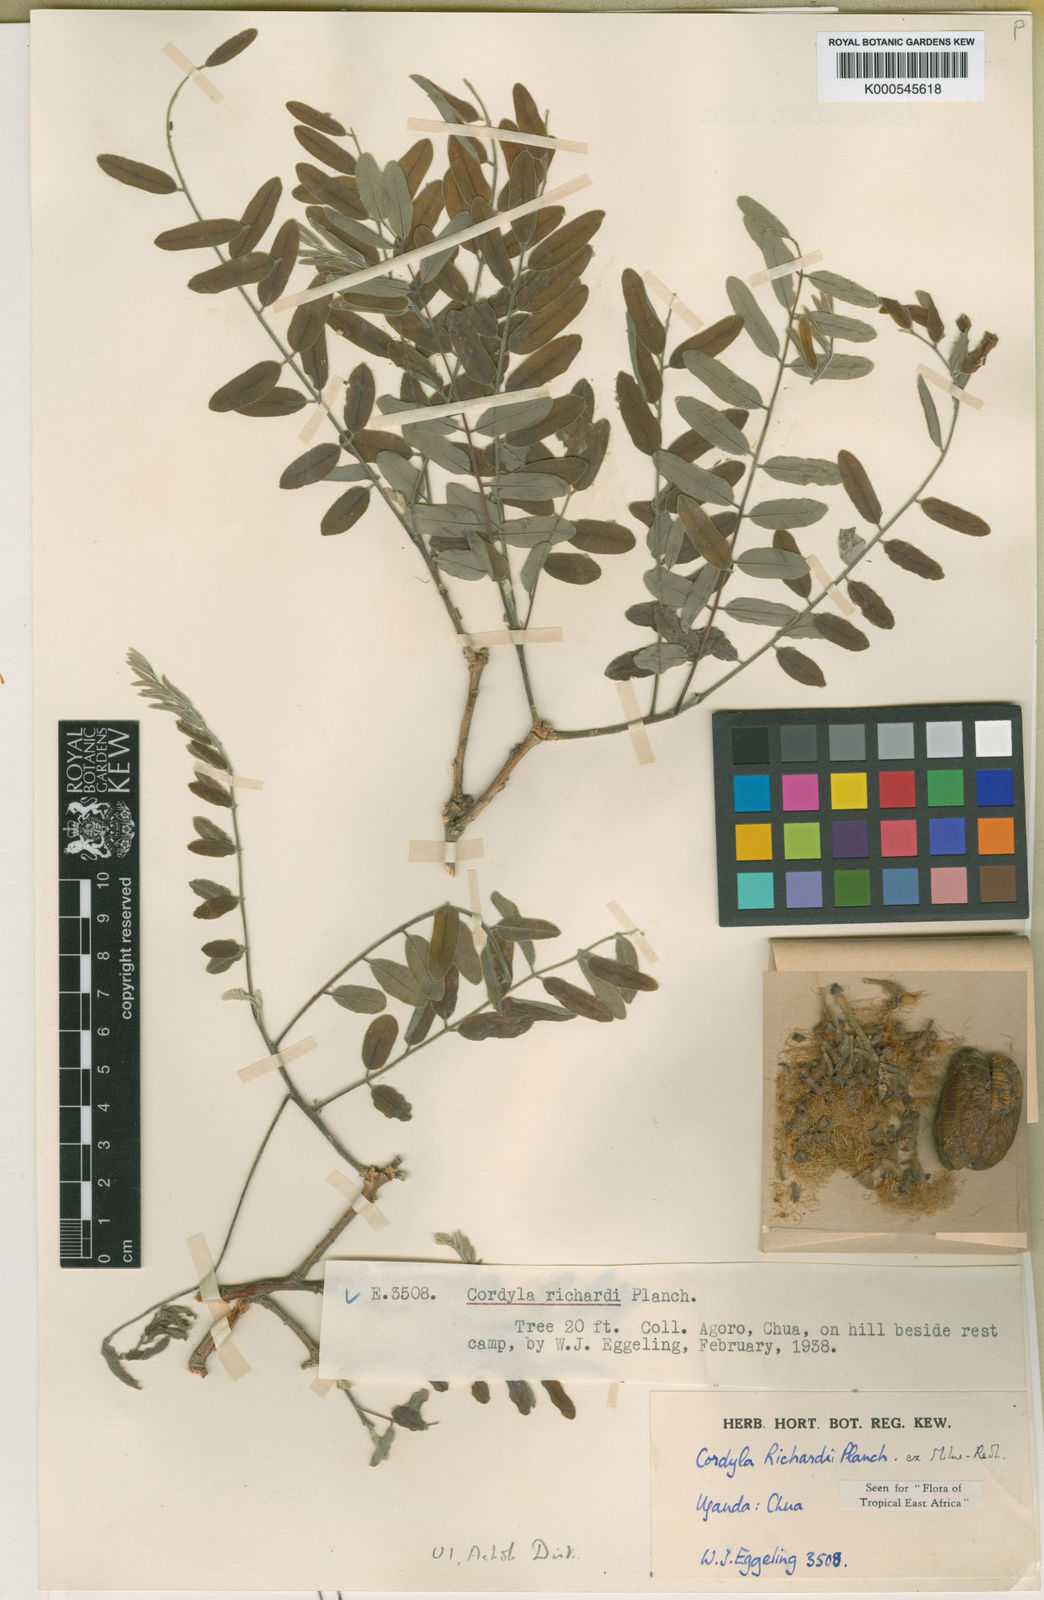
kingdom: Plantae
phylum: Tracheophyta
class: Magnoliopsida
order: Fabales
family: Fabaceae
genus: Cordyla
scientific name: Cordyla
